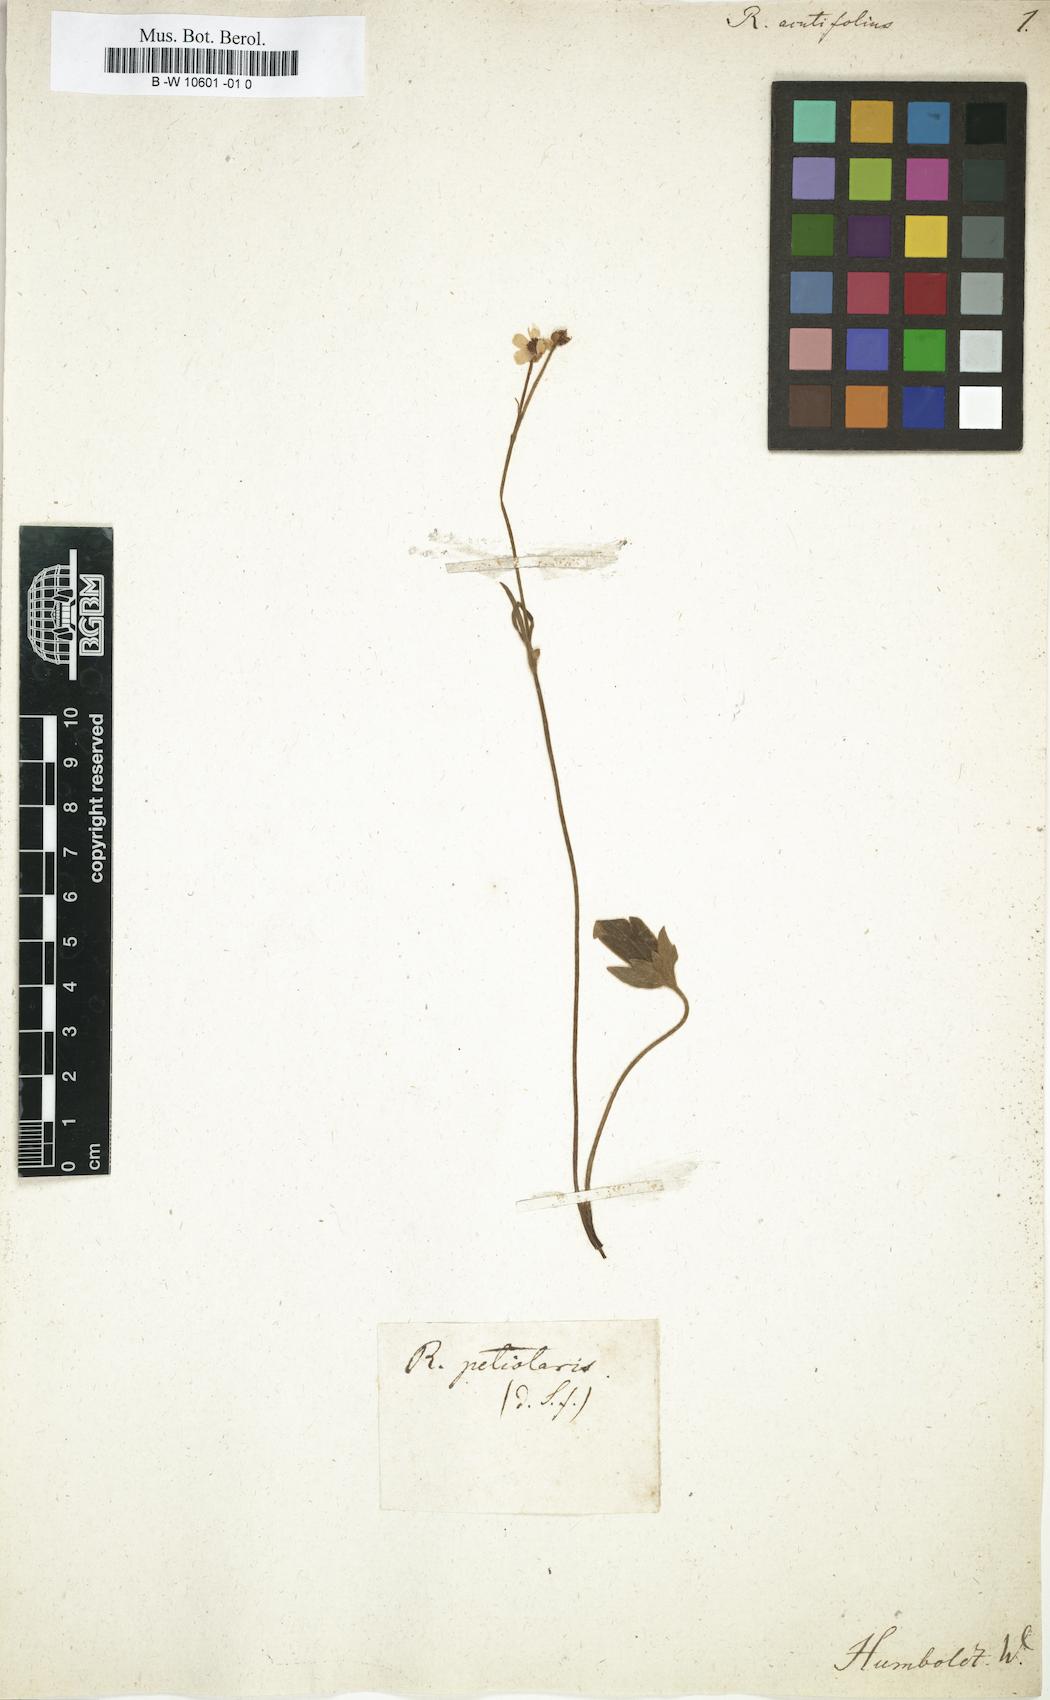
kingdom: Plantae
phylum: Tracheophyta
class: Magnoliopsida
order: Ranunculales
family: Ranunculaceae
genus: Ranunculus
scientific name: Ranunculus
